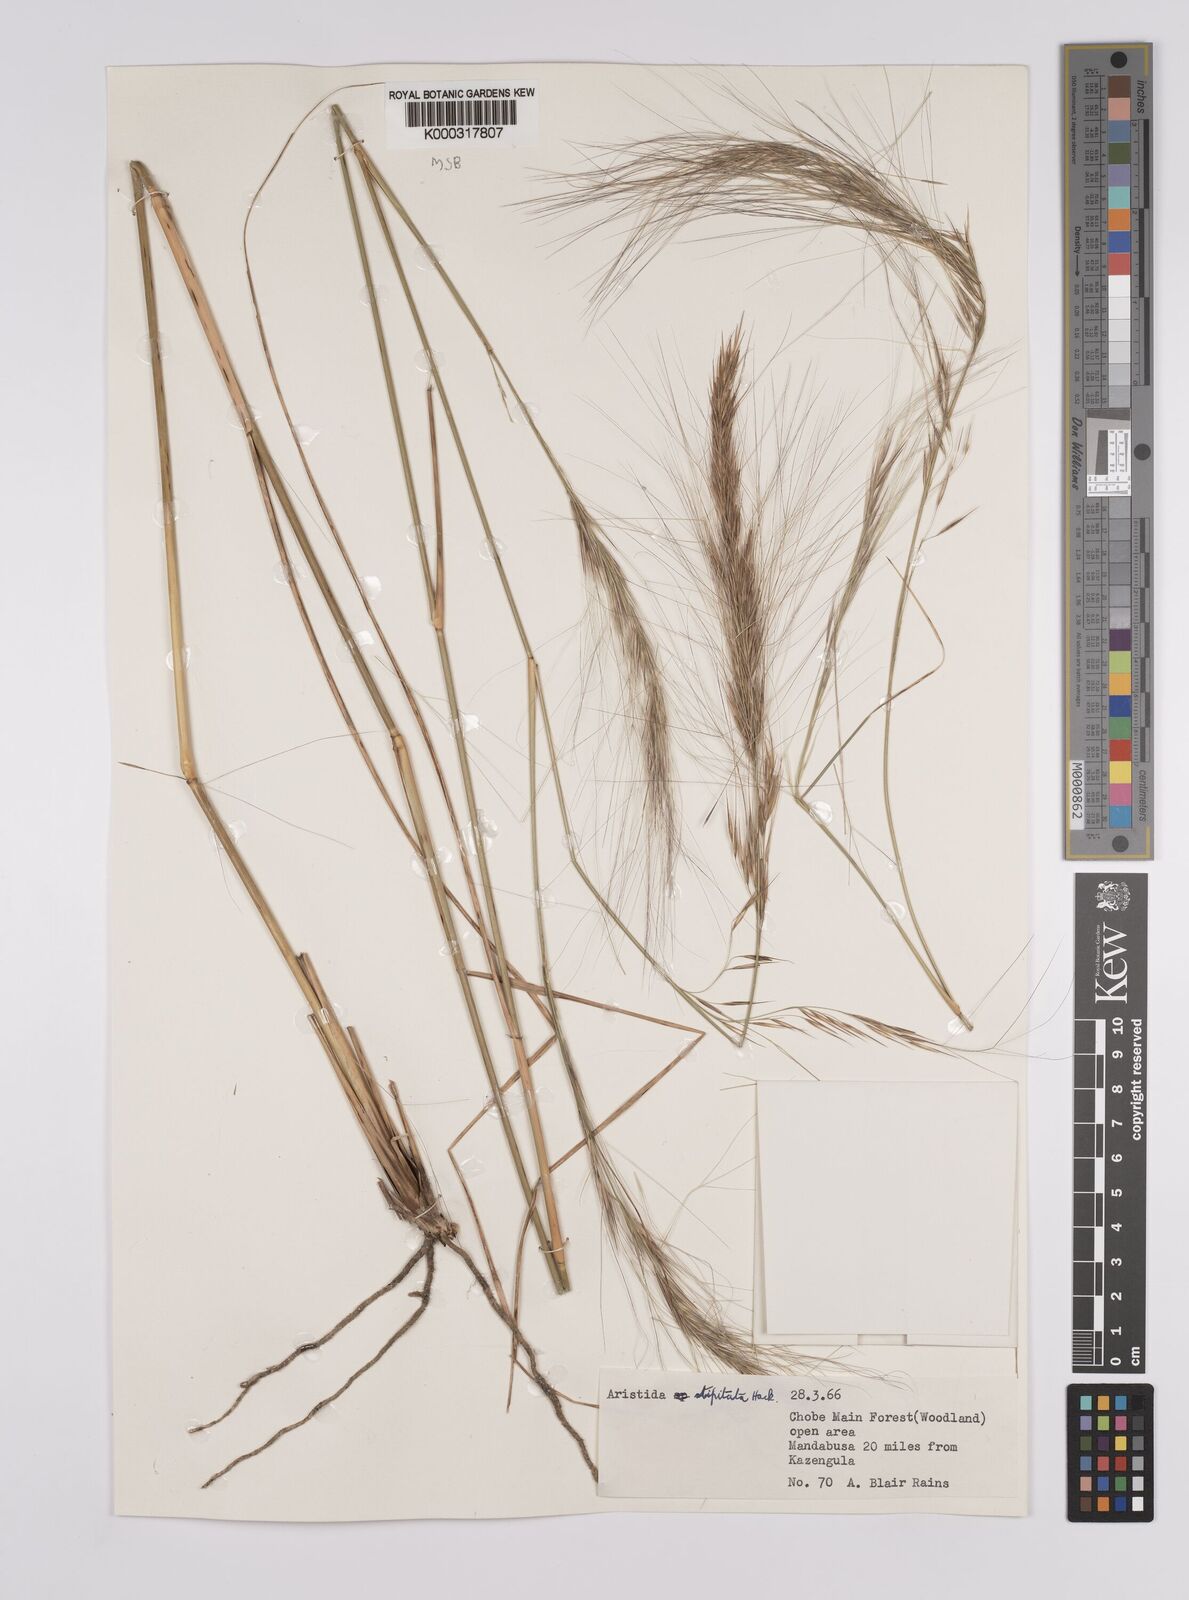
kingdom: Plantae
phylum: Tracheophyta
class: Liliopsida
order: Poales
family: Poaceae
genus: Aristida
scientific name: Aristida stipitata
